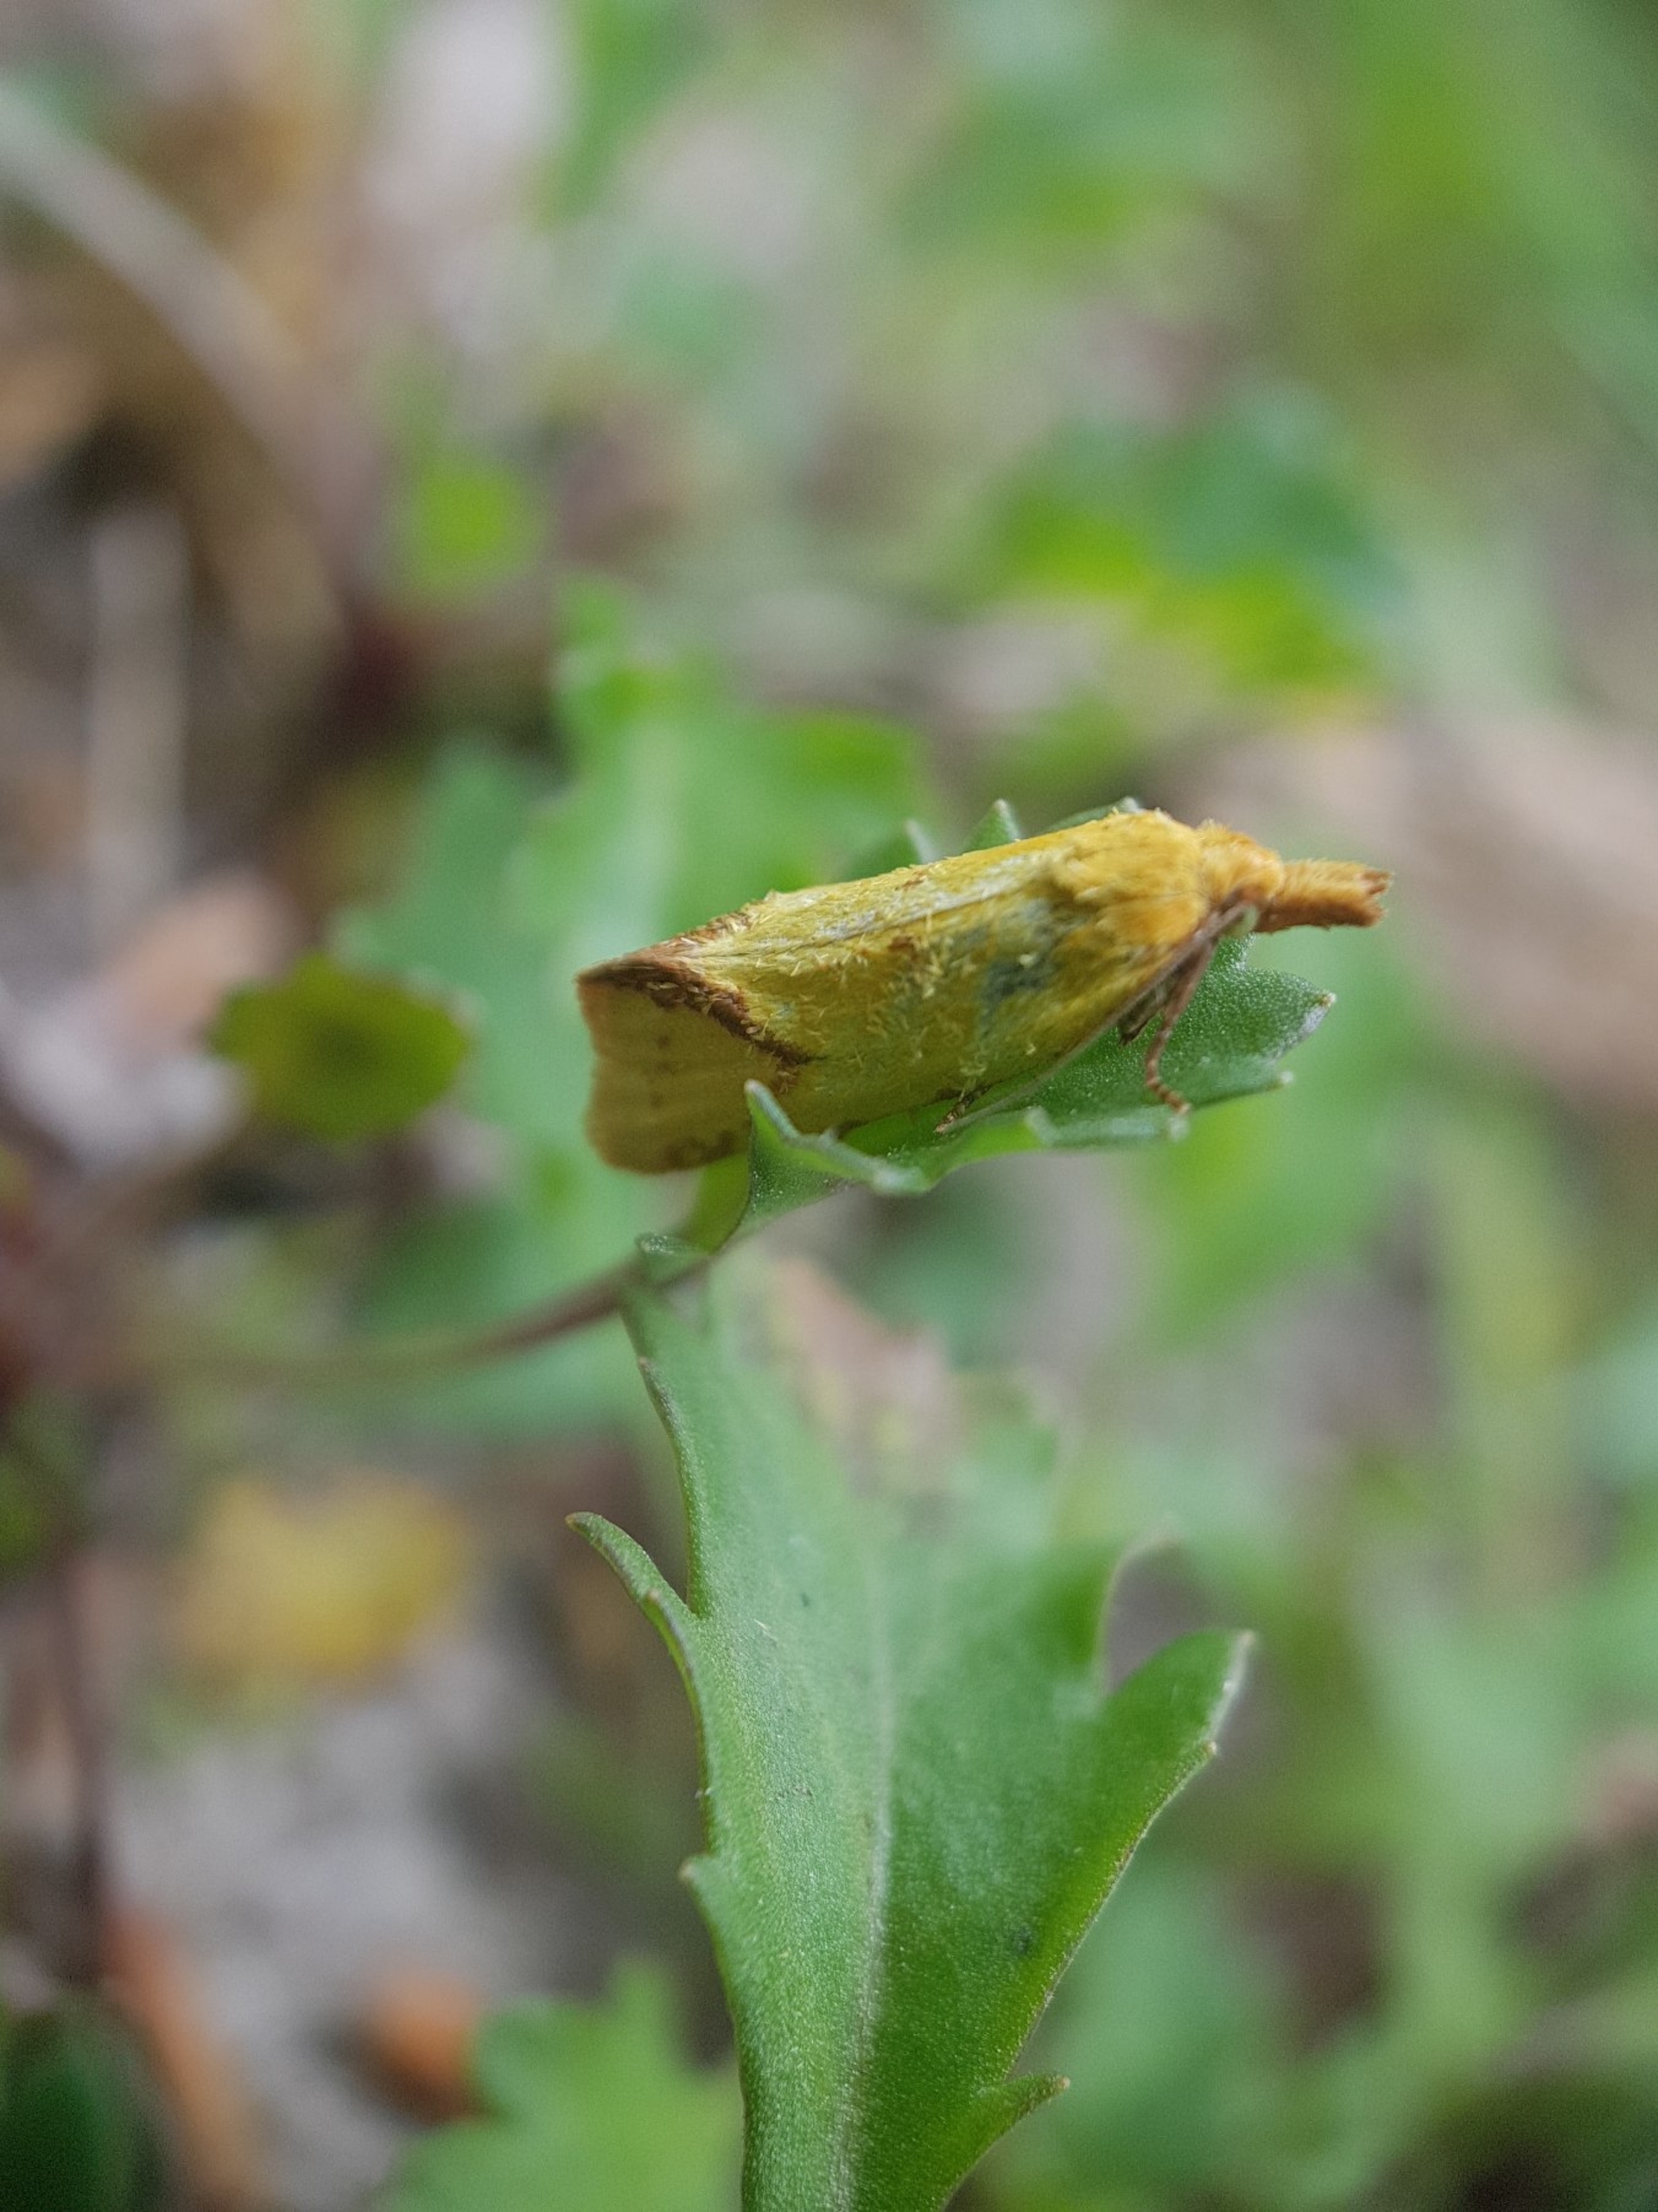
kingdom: Animalia
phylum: Arthropoda
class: Insecta
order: Lepidoptera
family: Tortricidae
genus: Agapeta
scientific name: Agapeta hamana
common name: Tidselgulvikler
